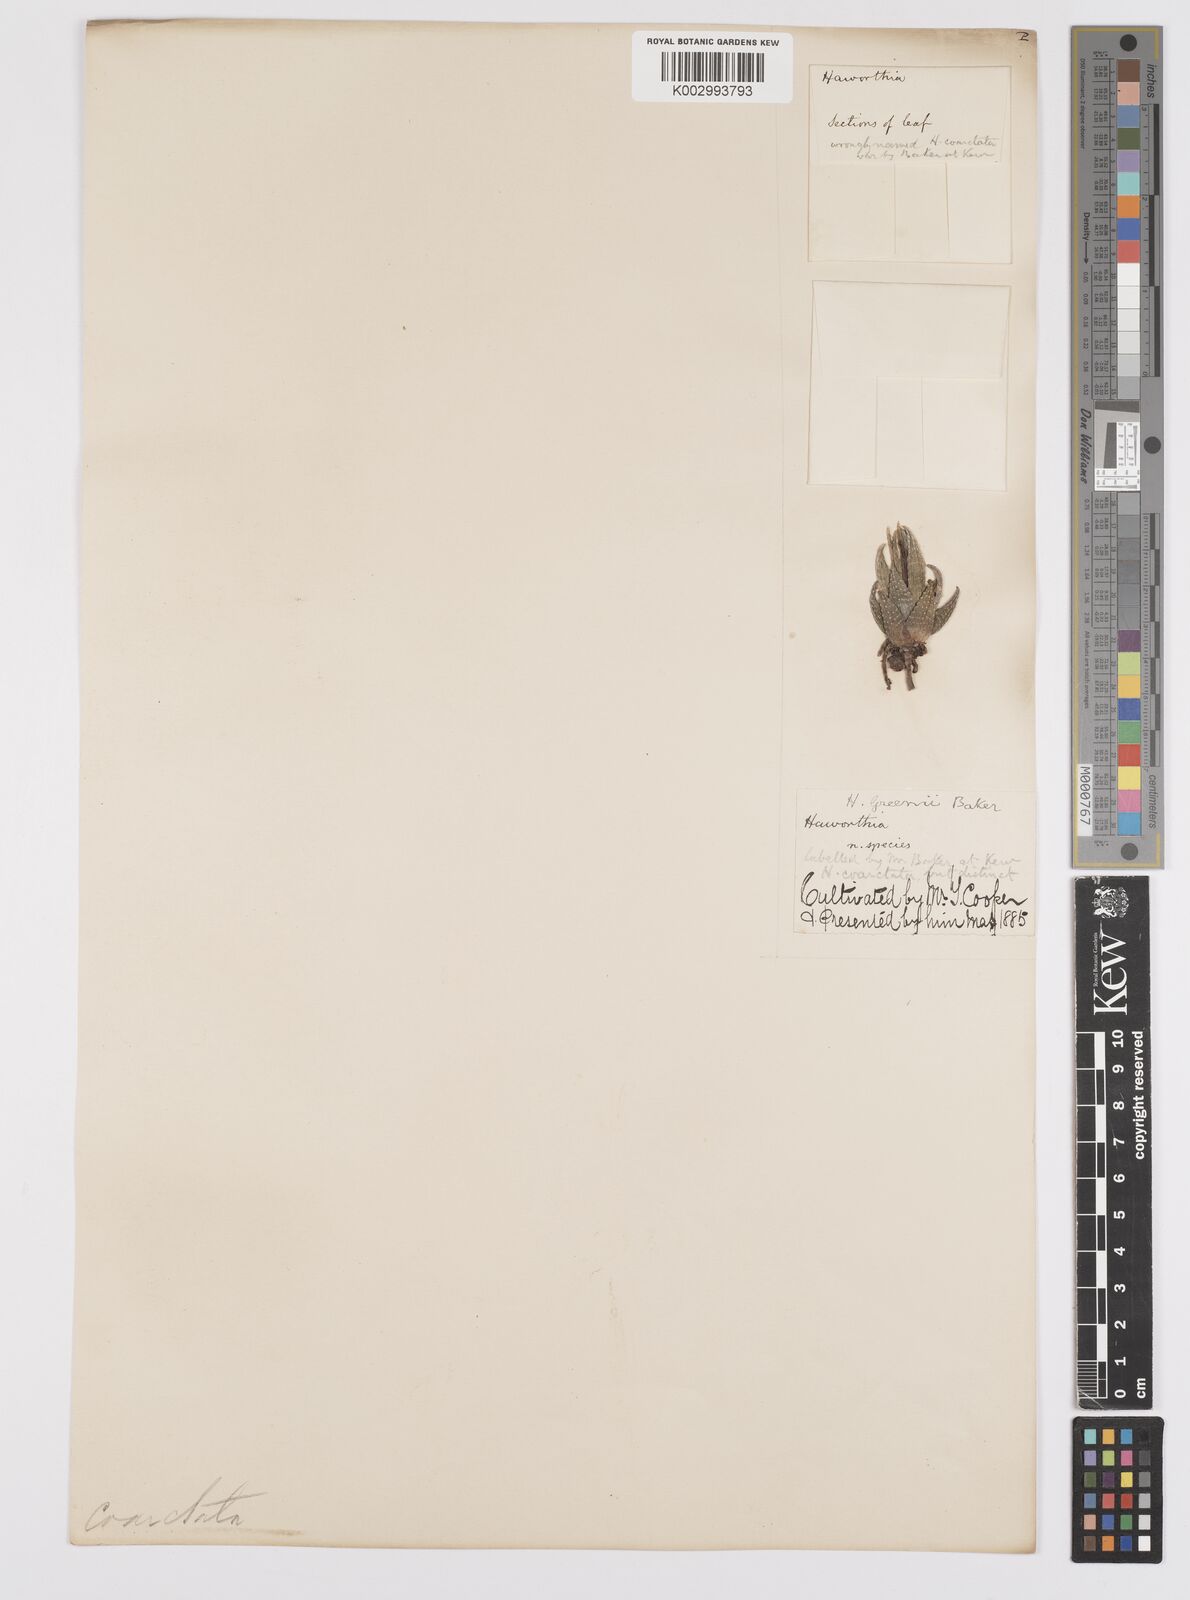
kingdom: Plantae
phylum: Tracheophyta
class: Liliopsida
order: Asparagales
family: Asphodelaceae
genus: Haworthiopsis
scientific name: Haworthiopsis coarctata
